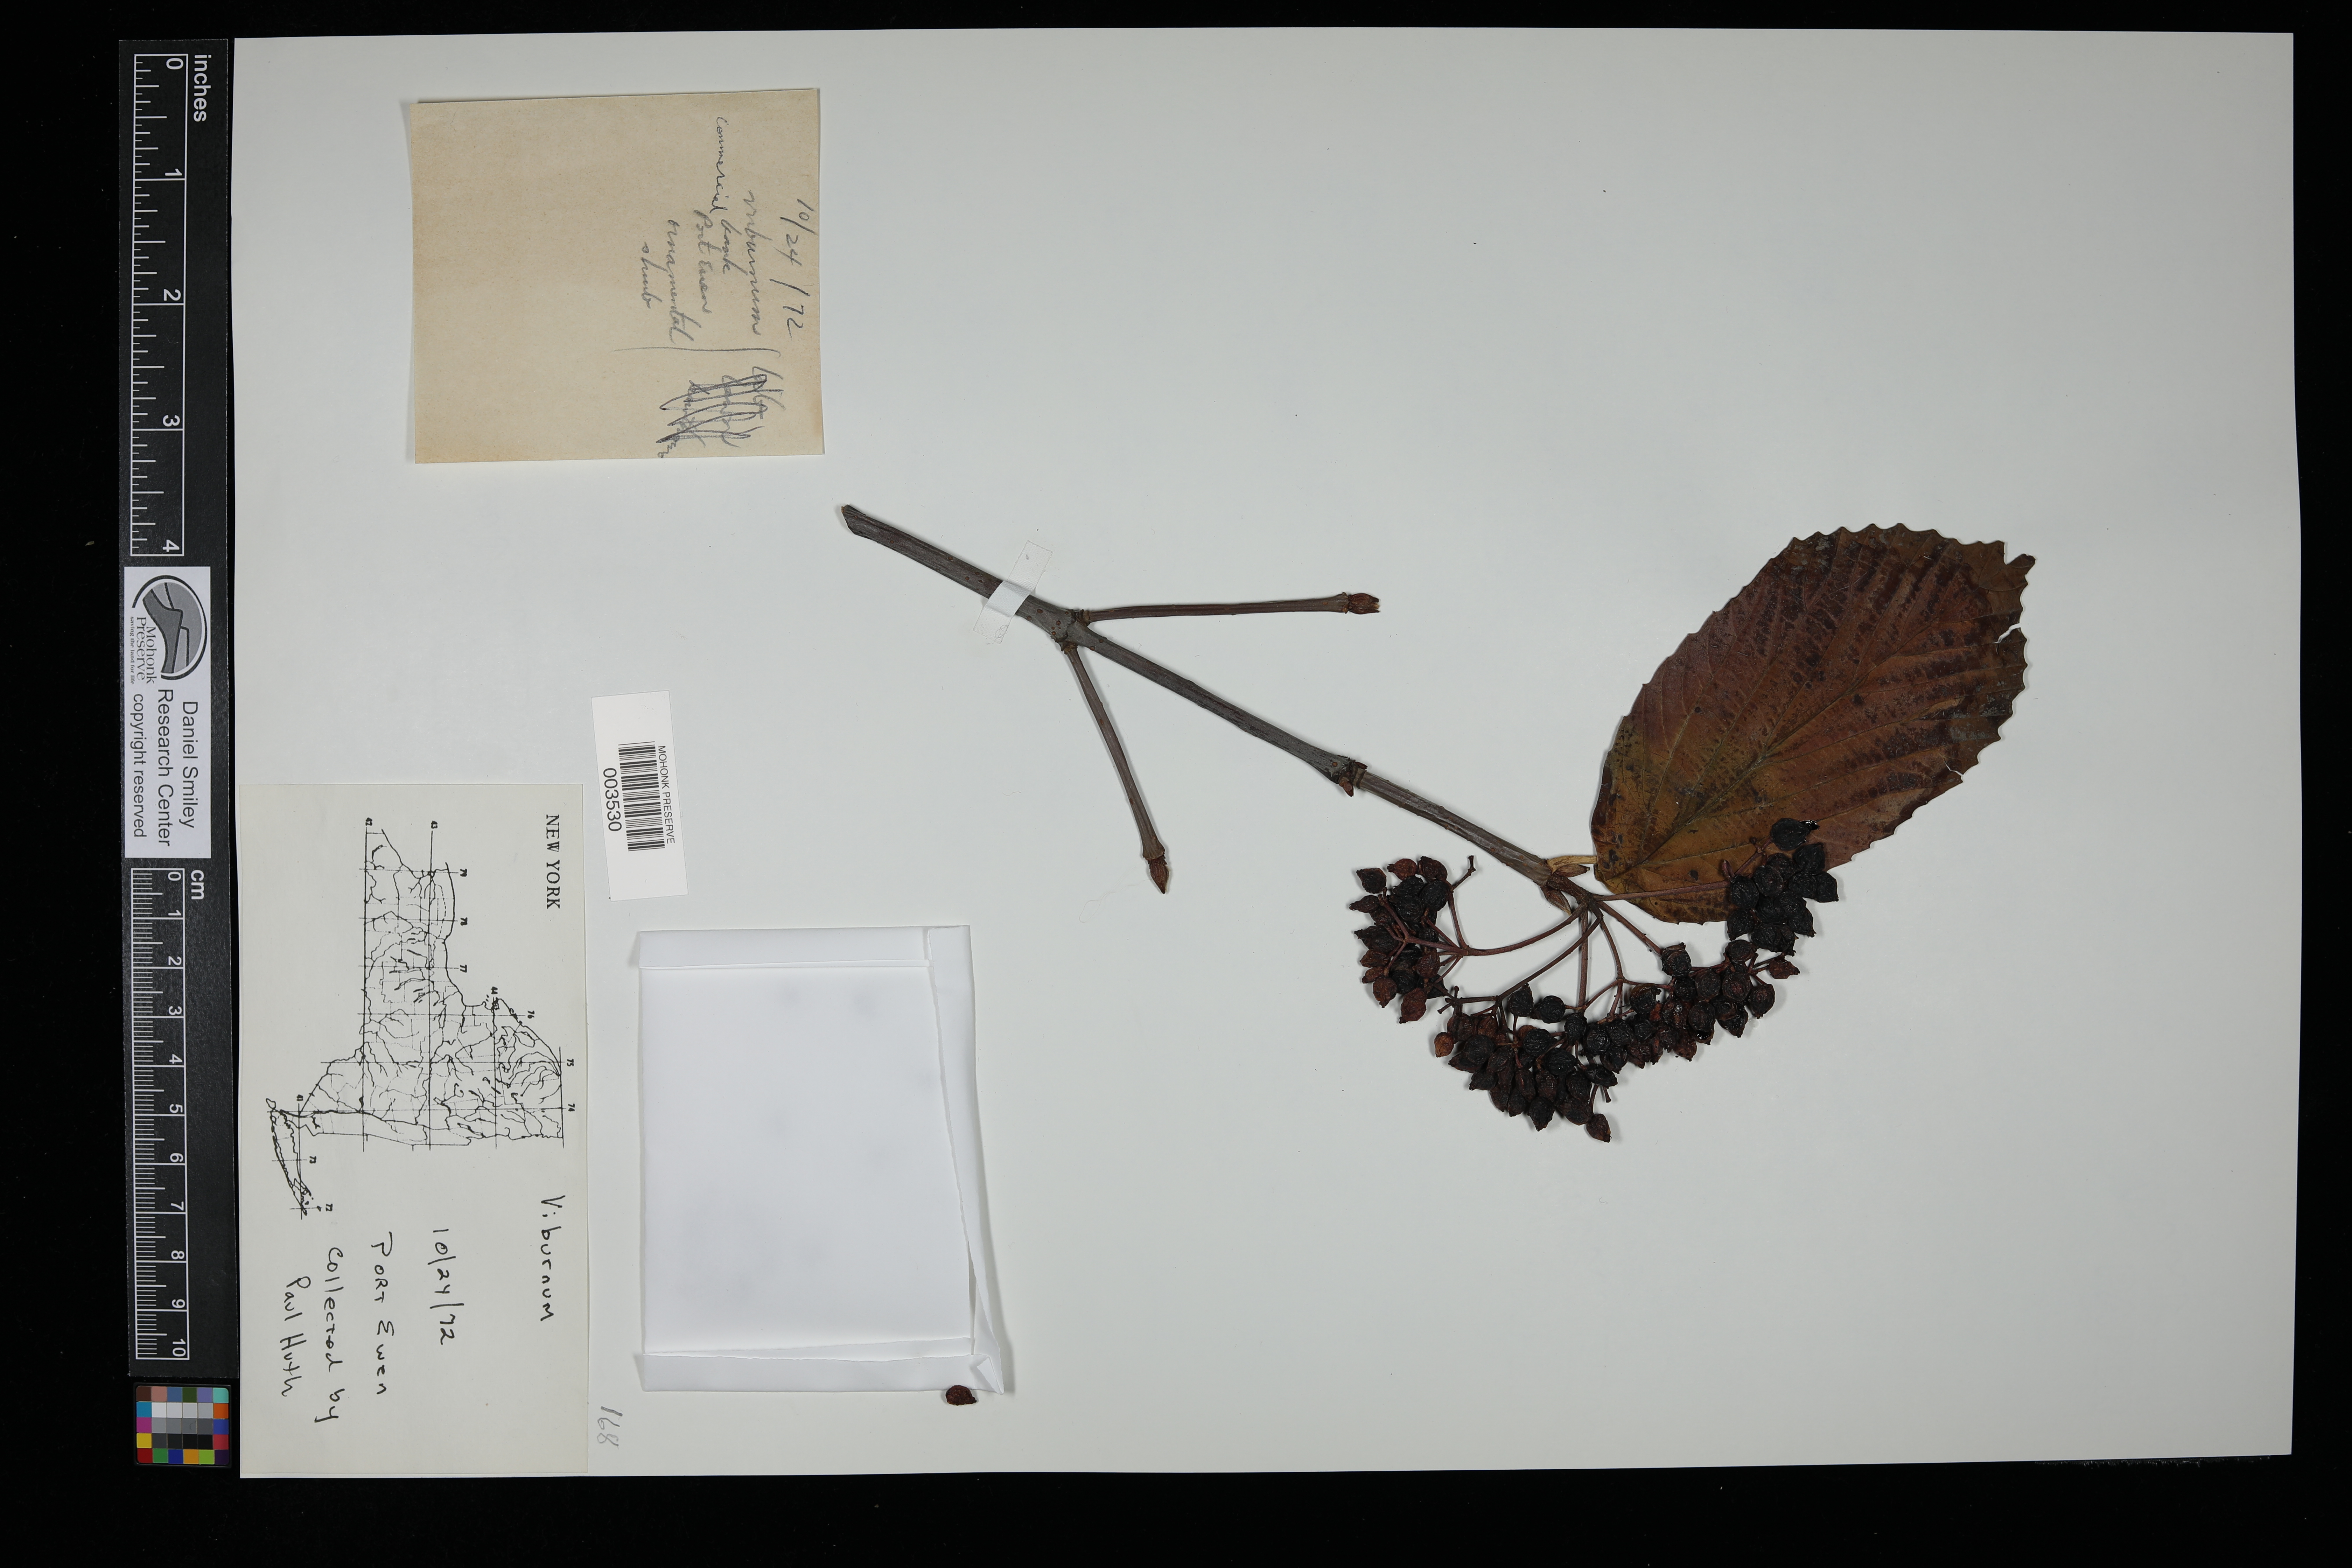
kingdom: Plantae
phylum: Tracheophyta
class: Magnoliopsida
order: Dipsacales
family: Viburnaceae
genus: Viburnum
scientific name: Viburnum
